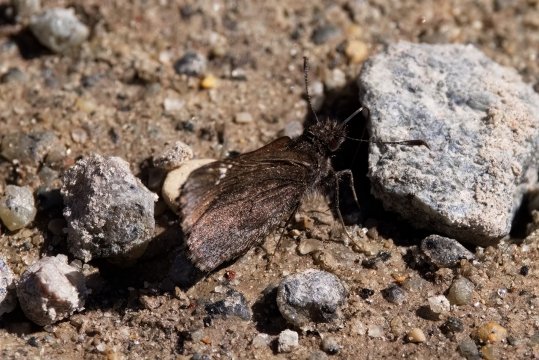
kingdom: Animalia
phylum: Arthropoda
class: Insecta
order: Lepidoptera
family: Hesperiidae
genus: Mastor
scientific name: Mastor vialis
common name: Common Roadside-Skipper
